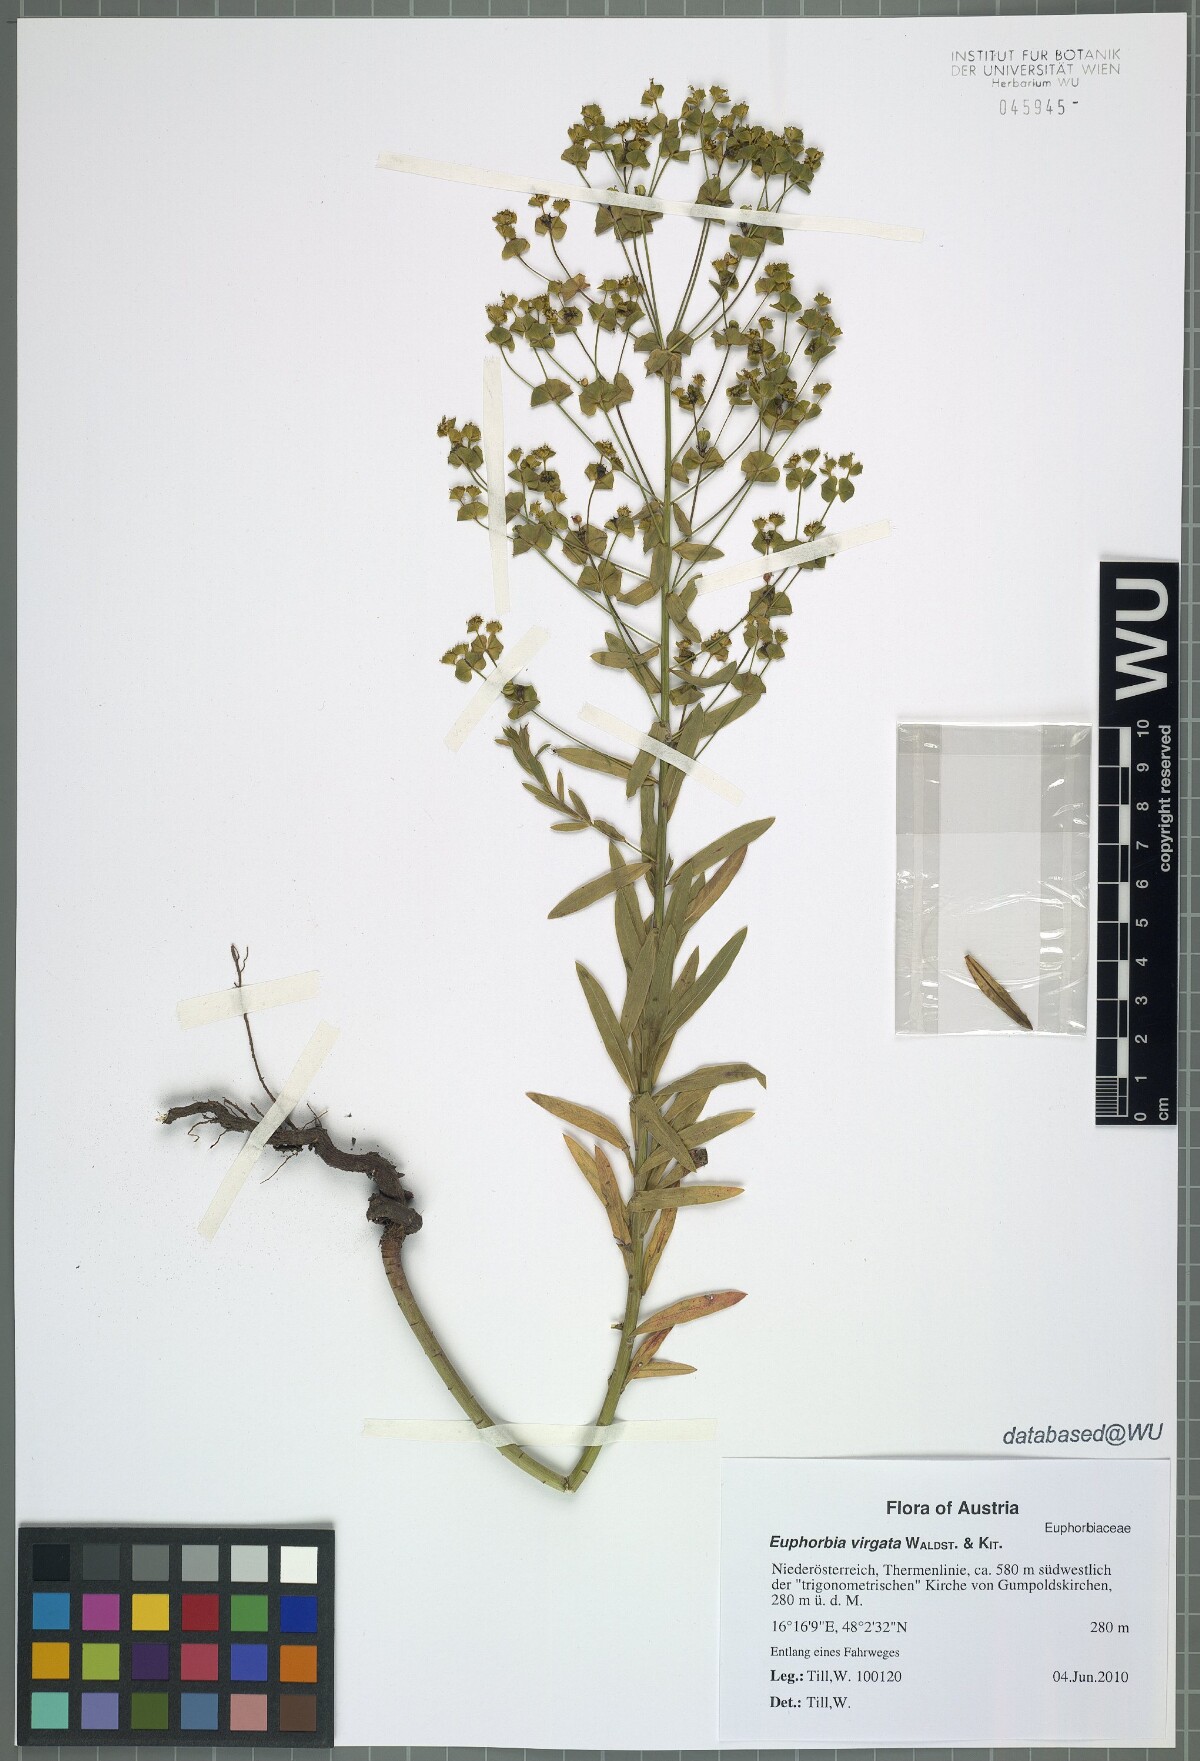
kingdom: Plantae
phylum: Tracheophyta
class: Magnoliopsida
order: Malpighiales
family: Euphorbiaceae
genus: Euphorbia
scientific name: Euphorbia virgata
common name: Leafy spurge
